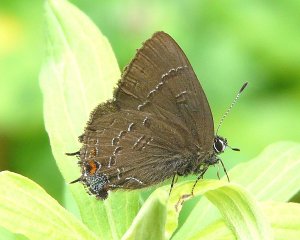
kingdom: Animalia
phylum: Arthropoda
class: Insecta
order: Lepidoptera
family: Lycaenidae
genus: Satyrium
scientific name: Satyrium calanus
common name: Banded Hairstreak
